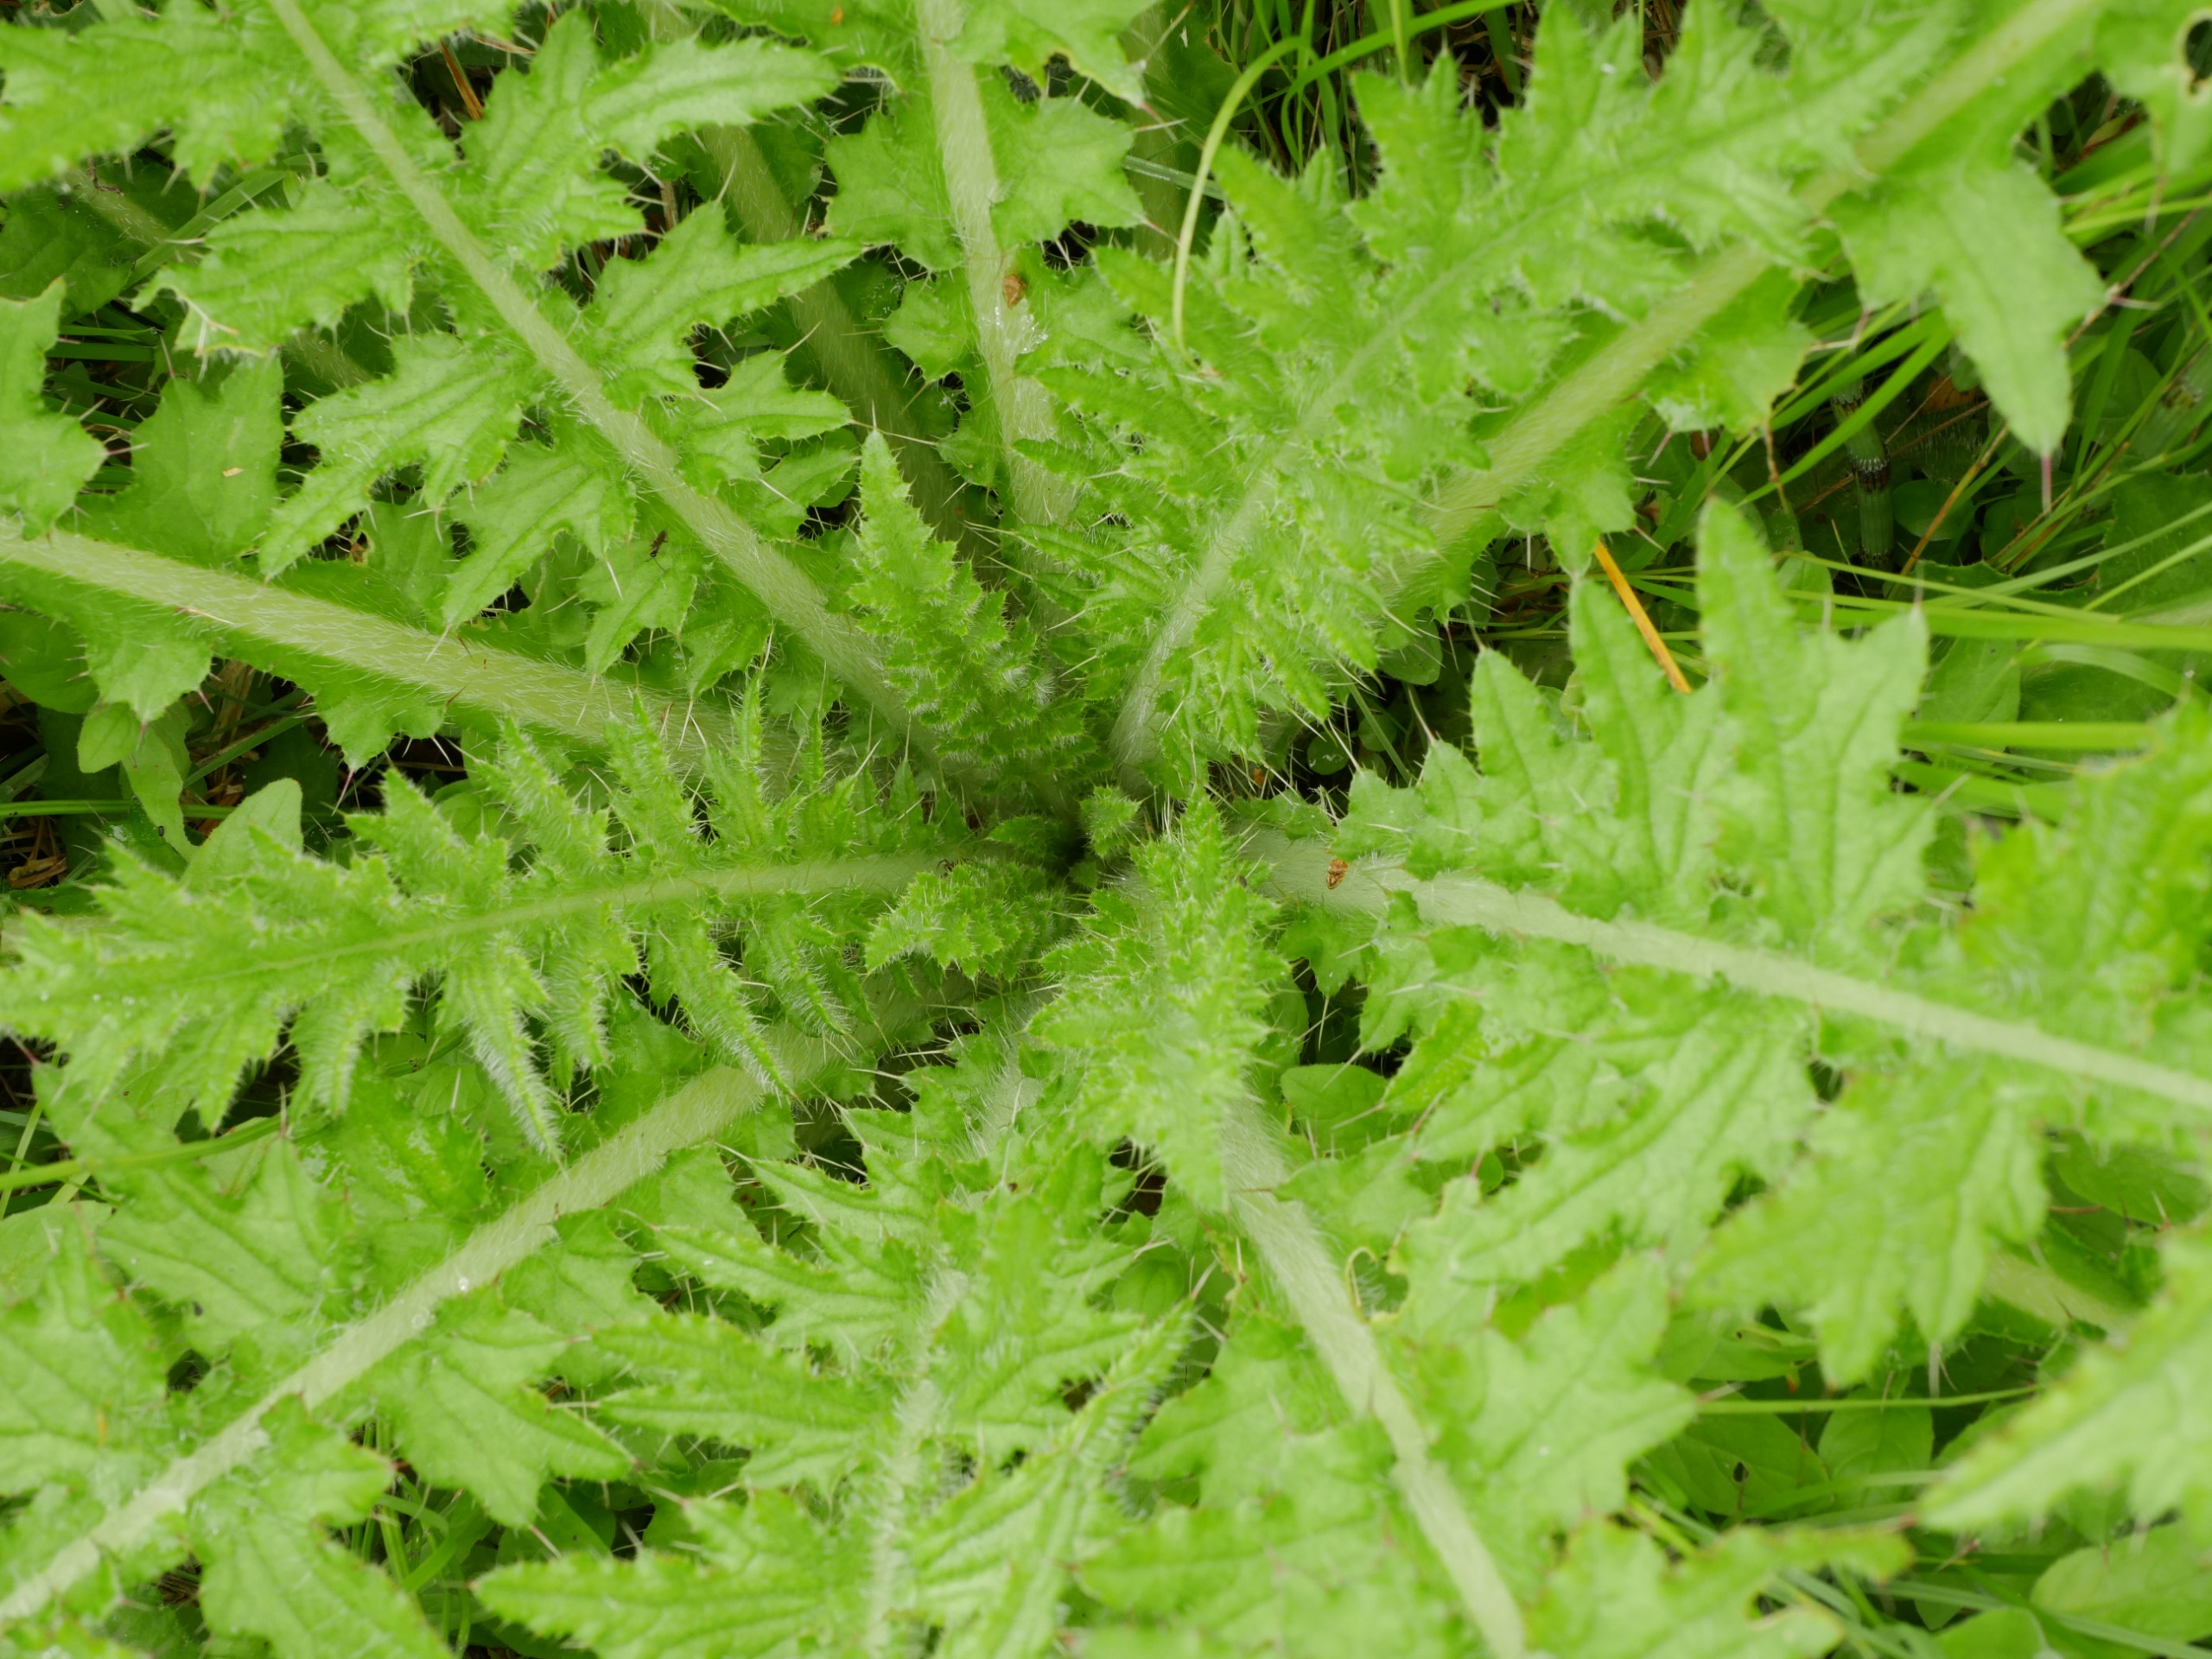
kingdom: Plantae
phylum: Tracheophyta
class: Magnoliopsida
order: Asterales
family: Asteraceae
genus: Cirsium
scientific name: Cirsium palustre
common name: Kær-tidsel
